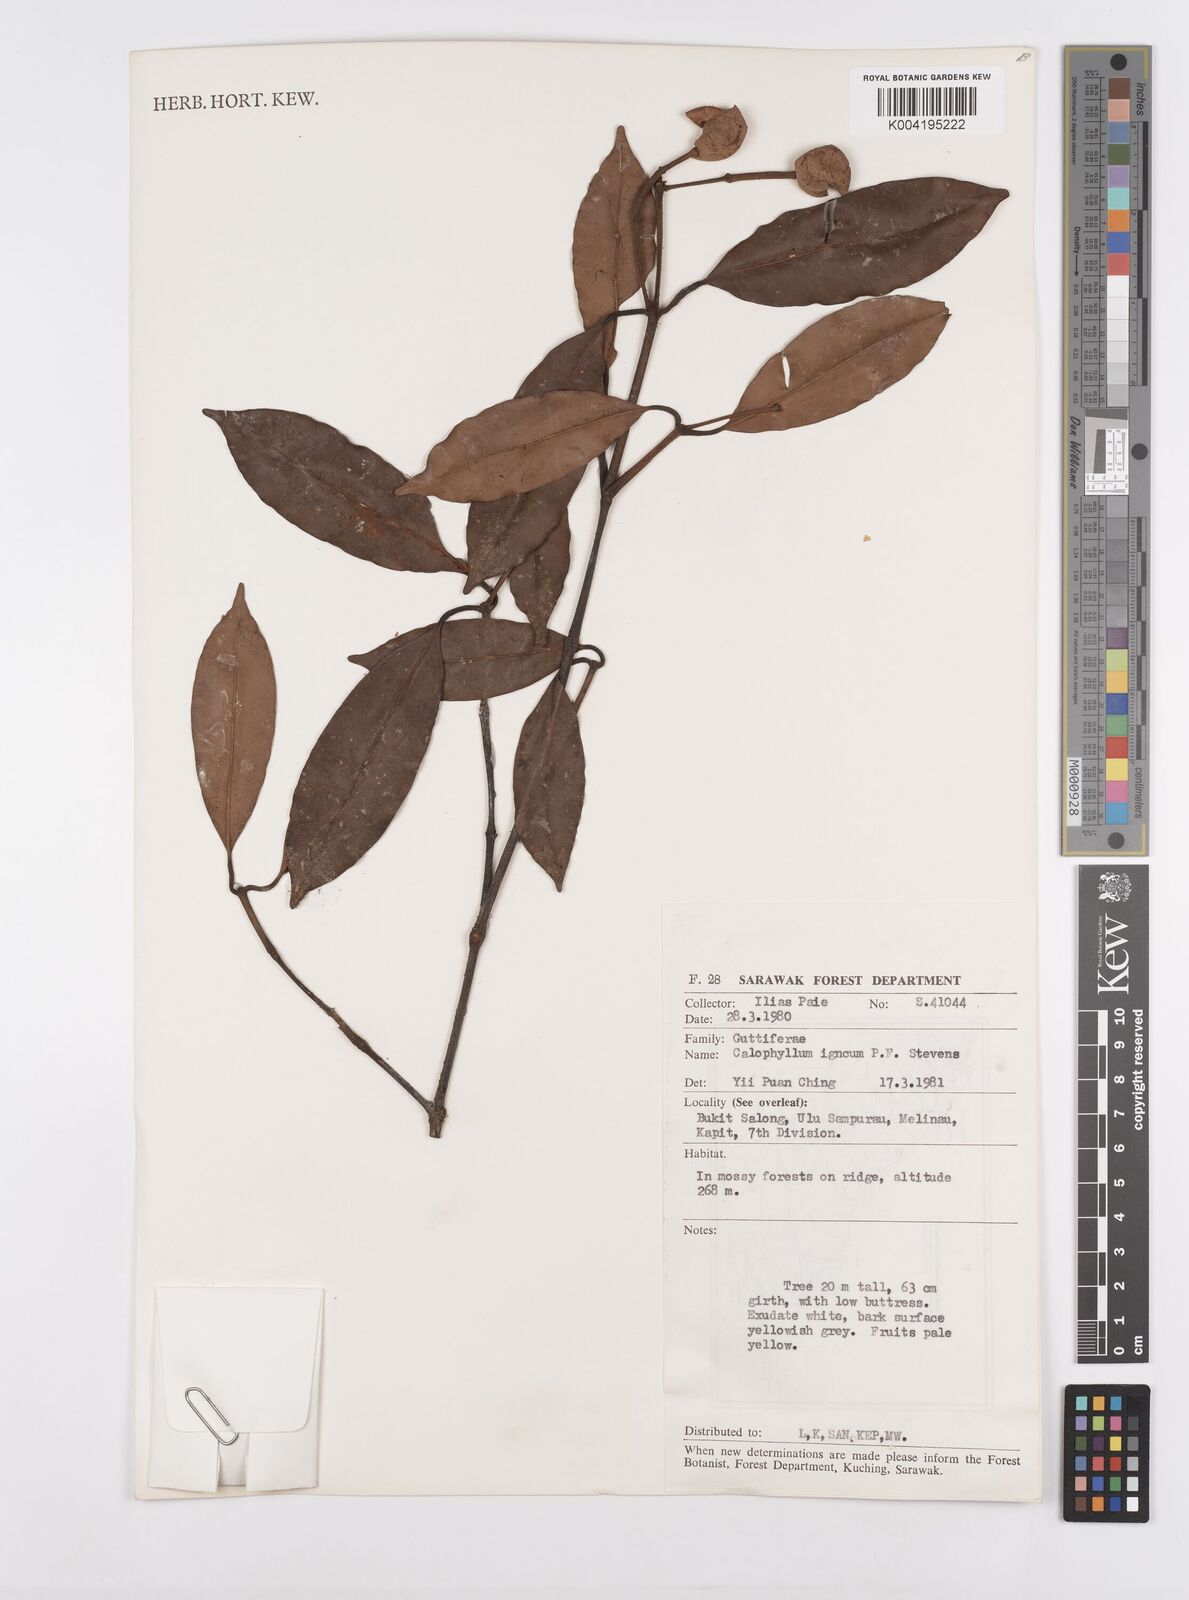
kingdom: Plantae
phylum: Tracheophyta
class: Magnoliopsida
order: Malpighiales
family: Calophyllaceae
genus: Calophyllum
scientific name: Calophyllum
